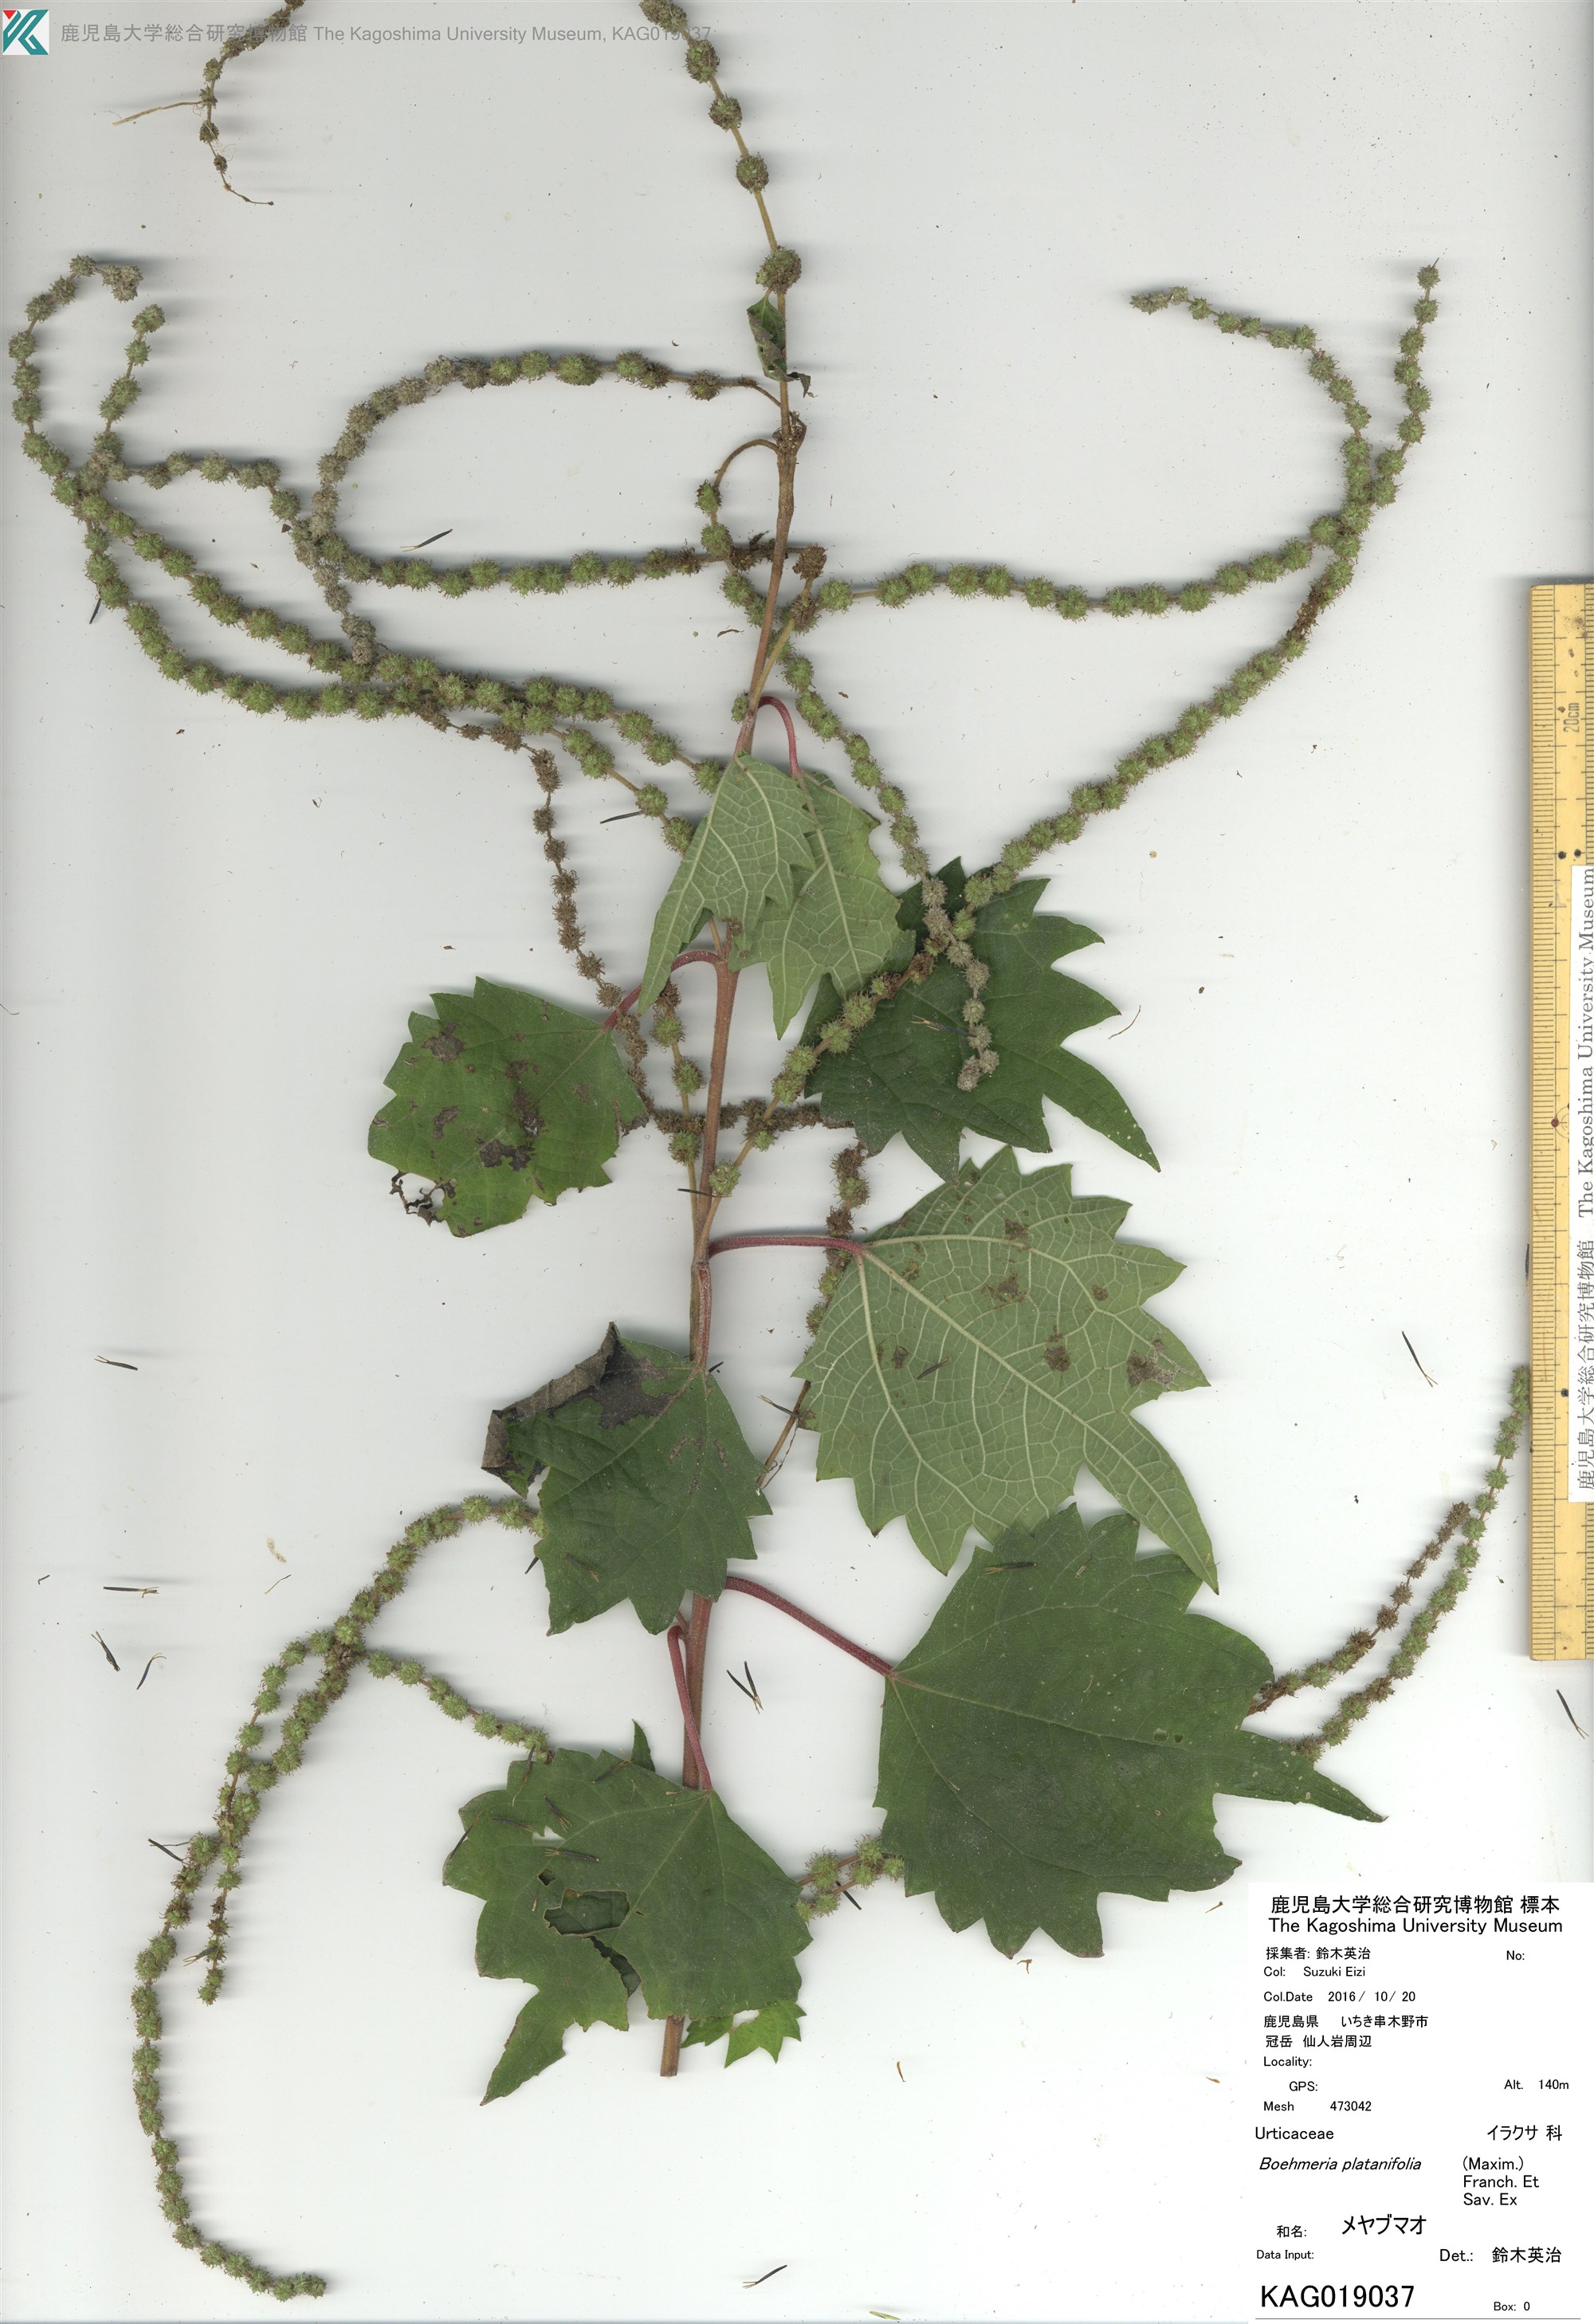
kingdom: Plantae
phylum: Tracheophyta
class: Magnoliopsida
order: Rosales
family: Urticaceae
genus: Boehmeria
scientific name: Boehmeria platanifolia
